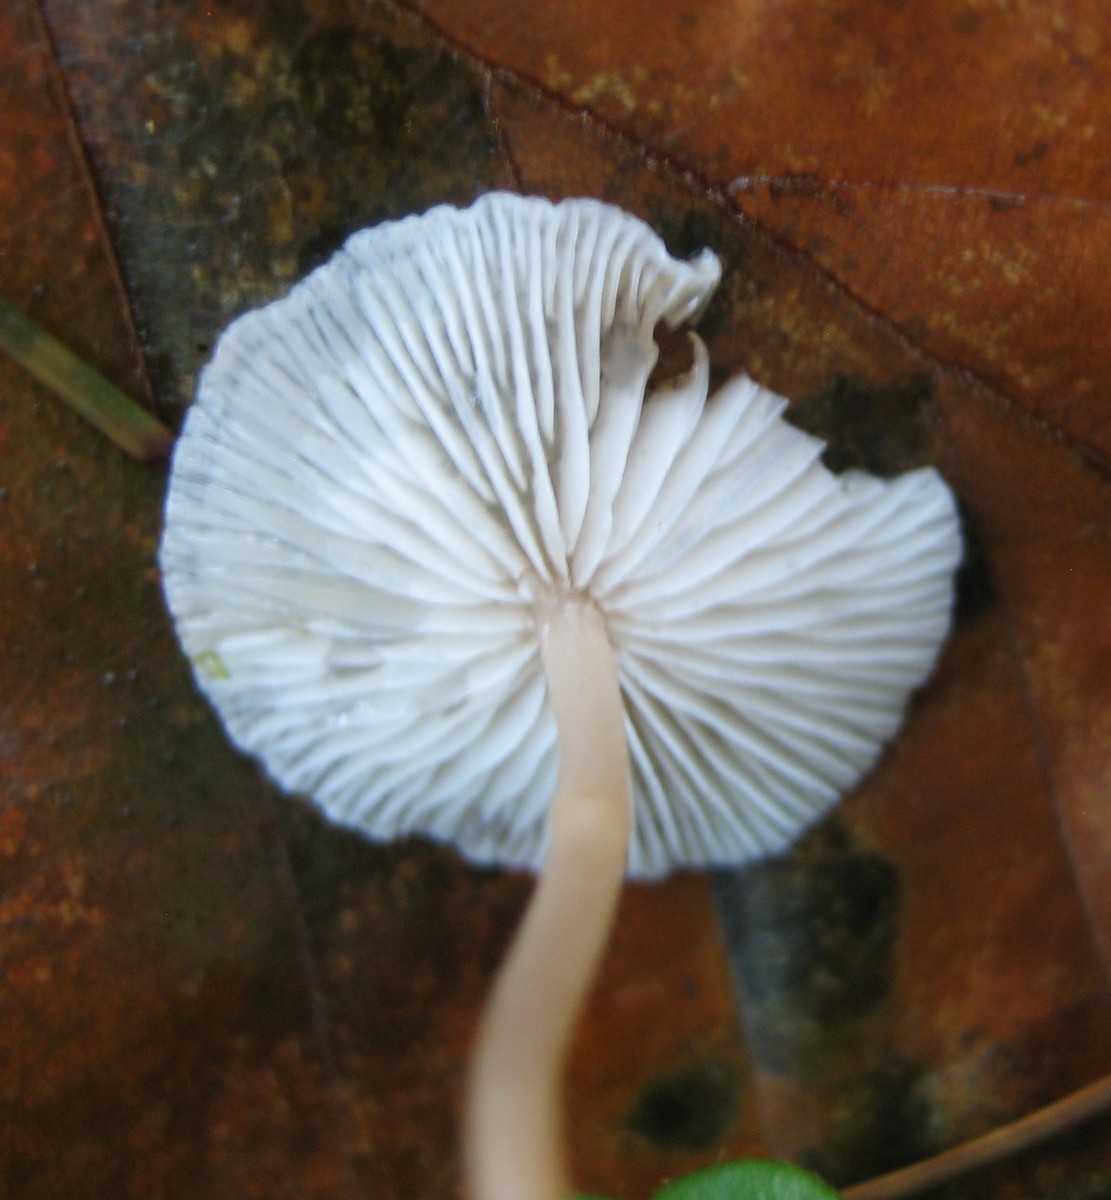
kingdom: Fungi
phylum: Basidiomycota
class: Agaricomycetes
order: Agaricales
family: Tricholomataceae
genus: Collybia
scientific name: Collybia
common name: lighat
